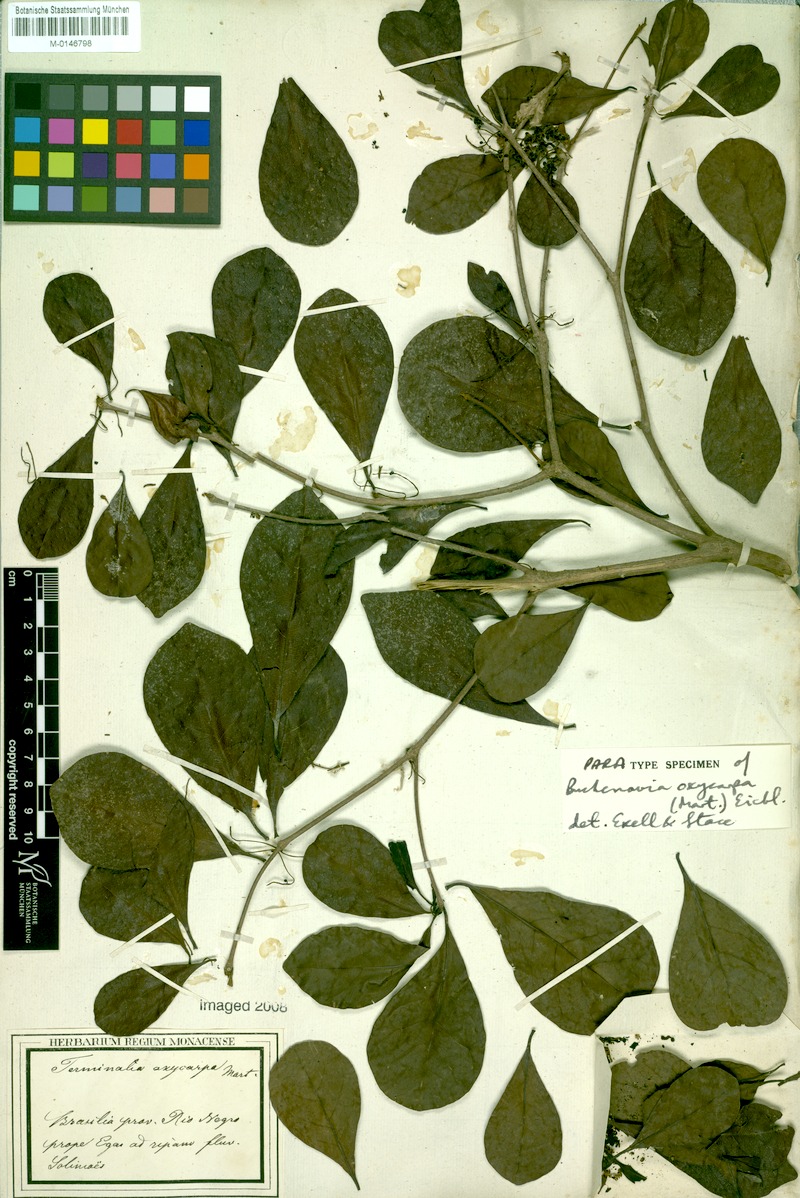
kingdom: Plantae
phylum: Tracheophyta
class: Magnoliopsida
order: Myrtales
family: Combretaceae
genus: Terminalia
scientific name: Terminalia oxycarpa
